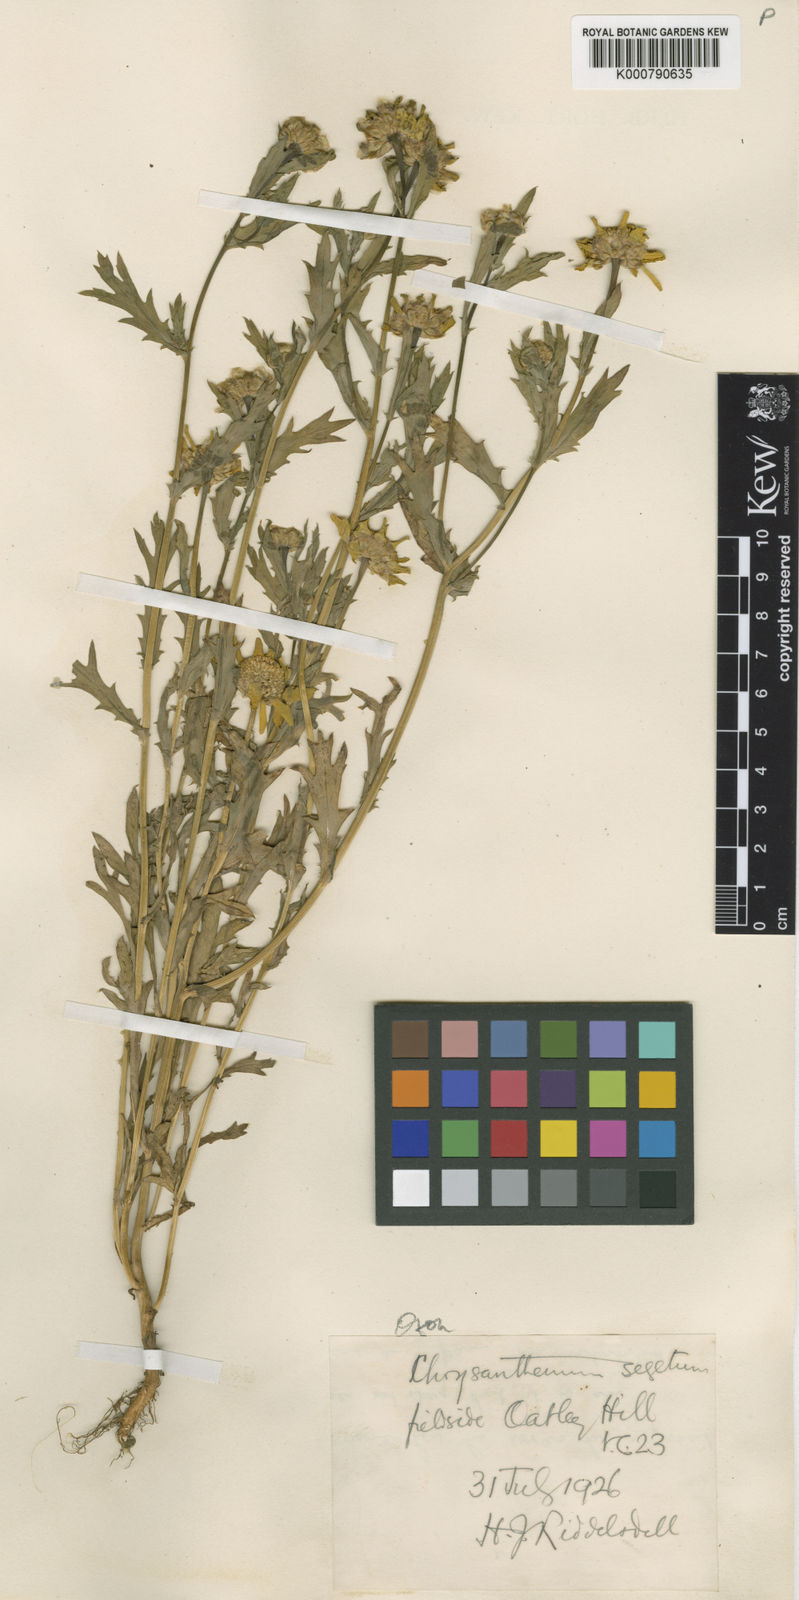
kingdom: Plantae
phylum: Tracheophyta
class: Magnoliopsida
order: Asterales
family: Asteraceae
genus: Glebionis
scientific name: Glebionis
